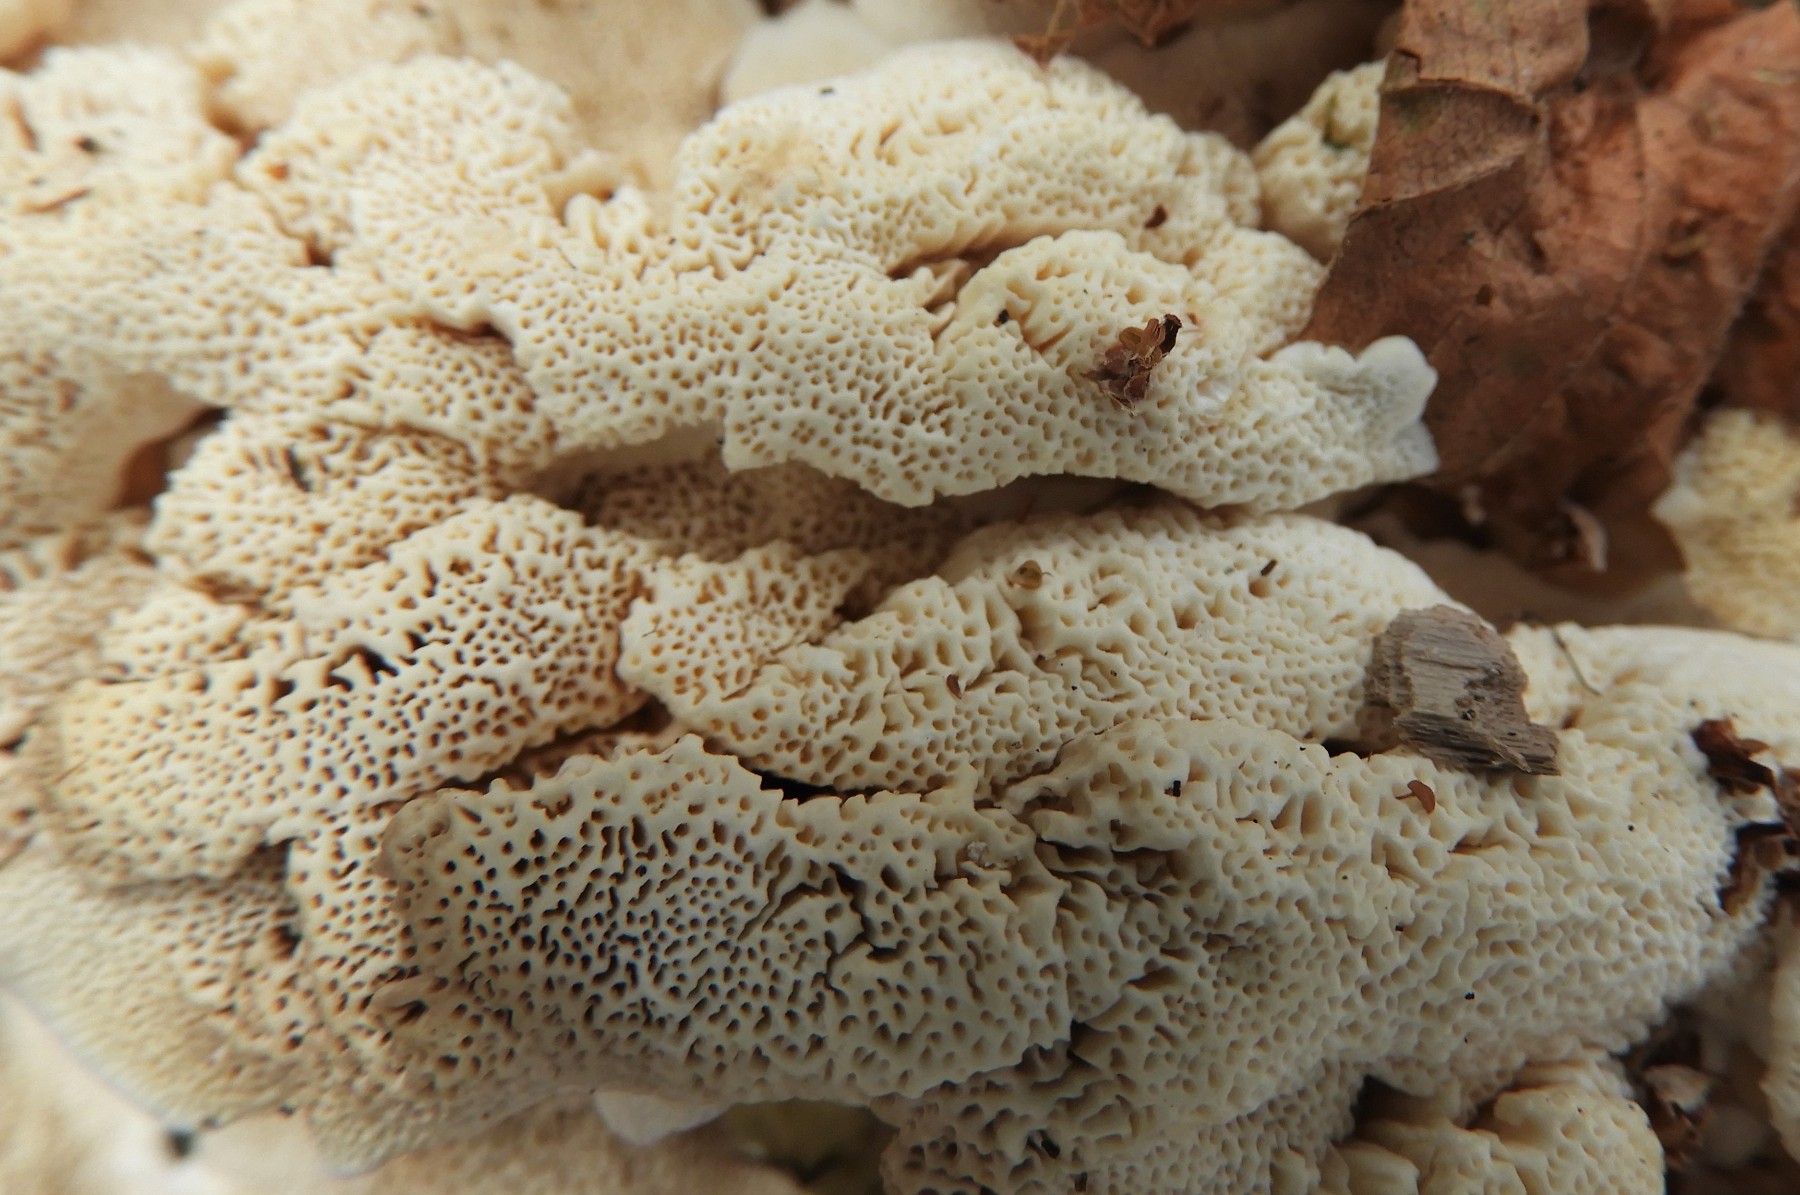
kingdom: Fungi
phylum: Basidiomycota
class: Agaricomycetes
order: Polyporales
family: Polyporaceae
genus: Trametes
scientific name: Trametes versicolor
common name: broget læderporesvamp
